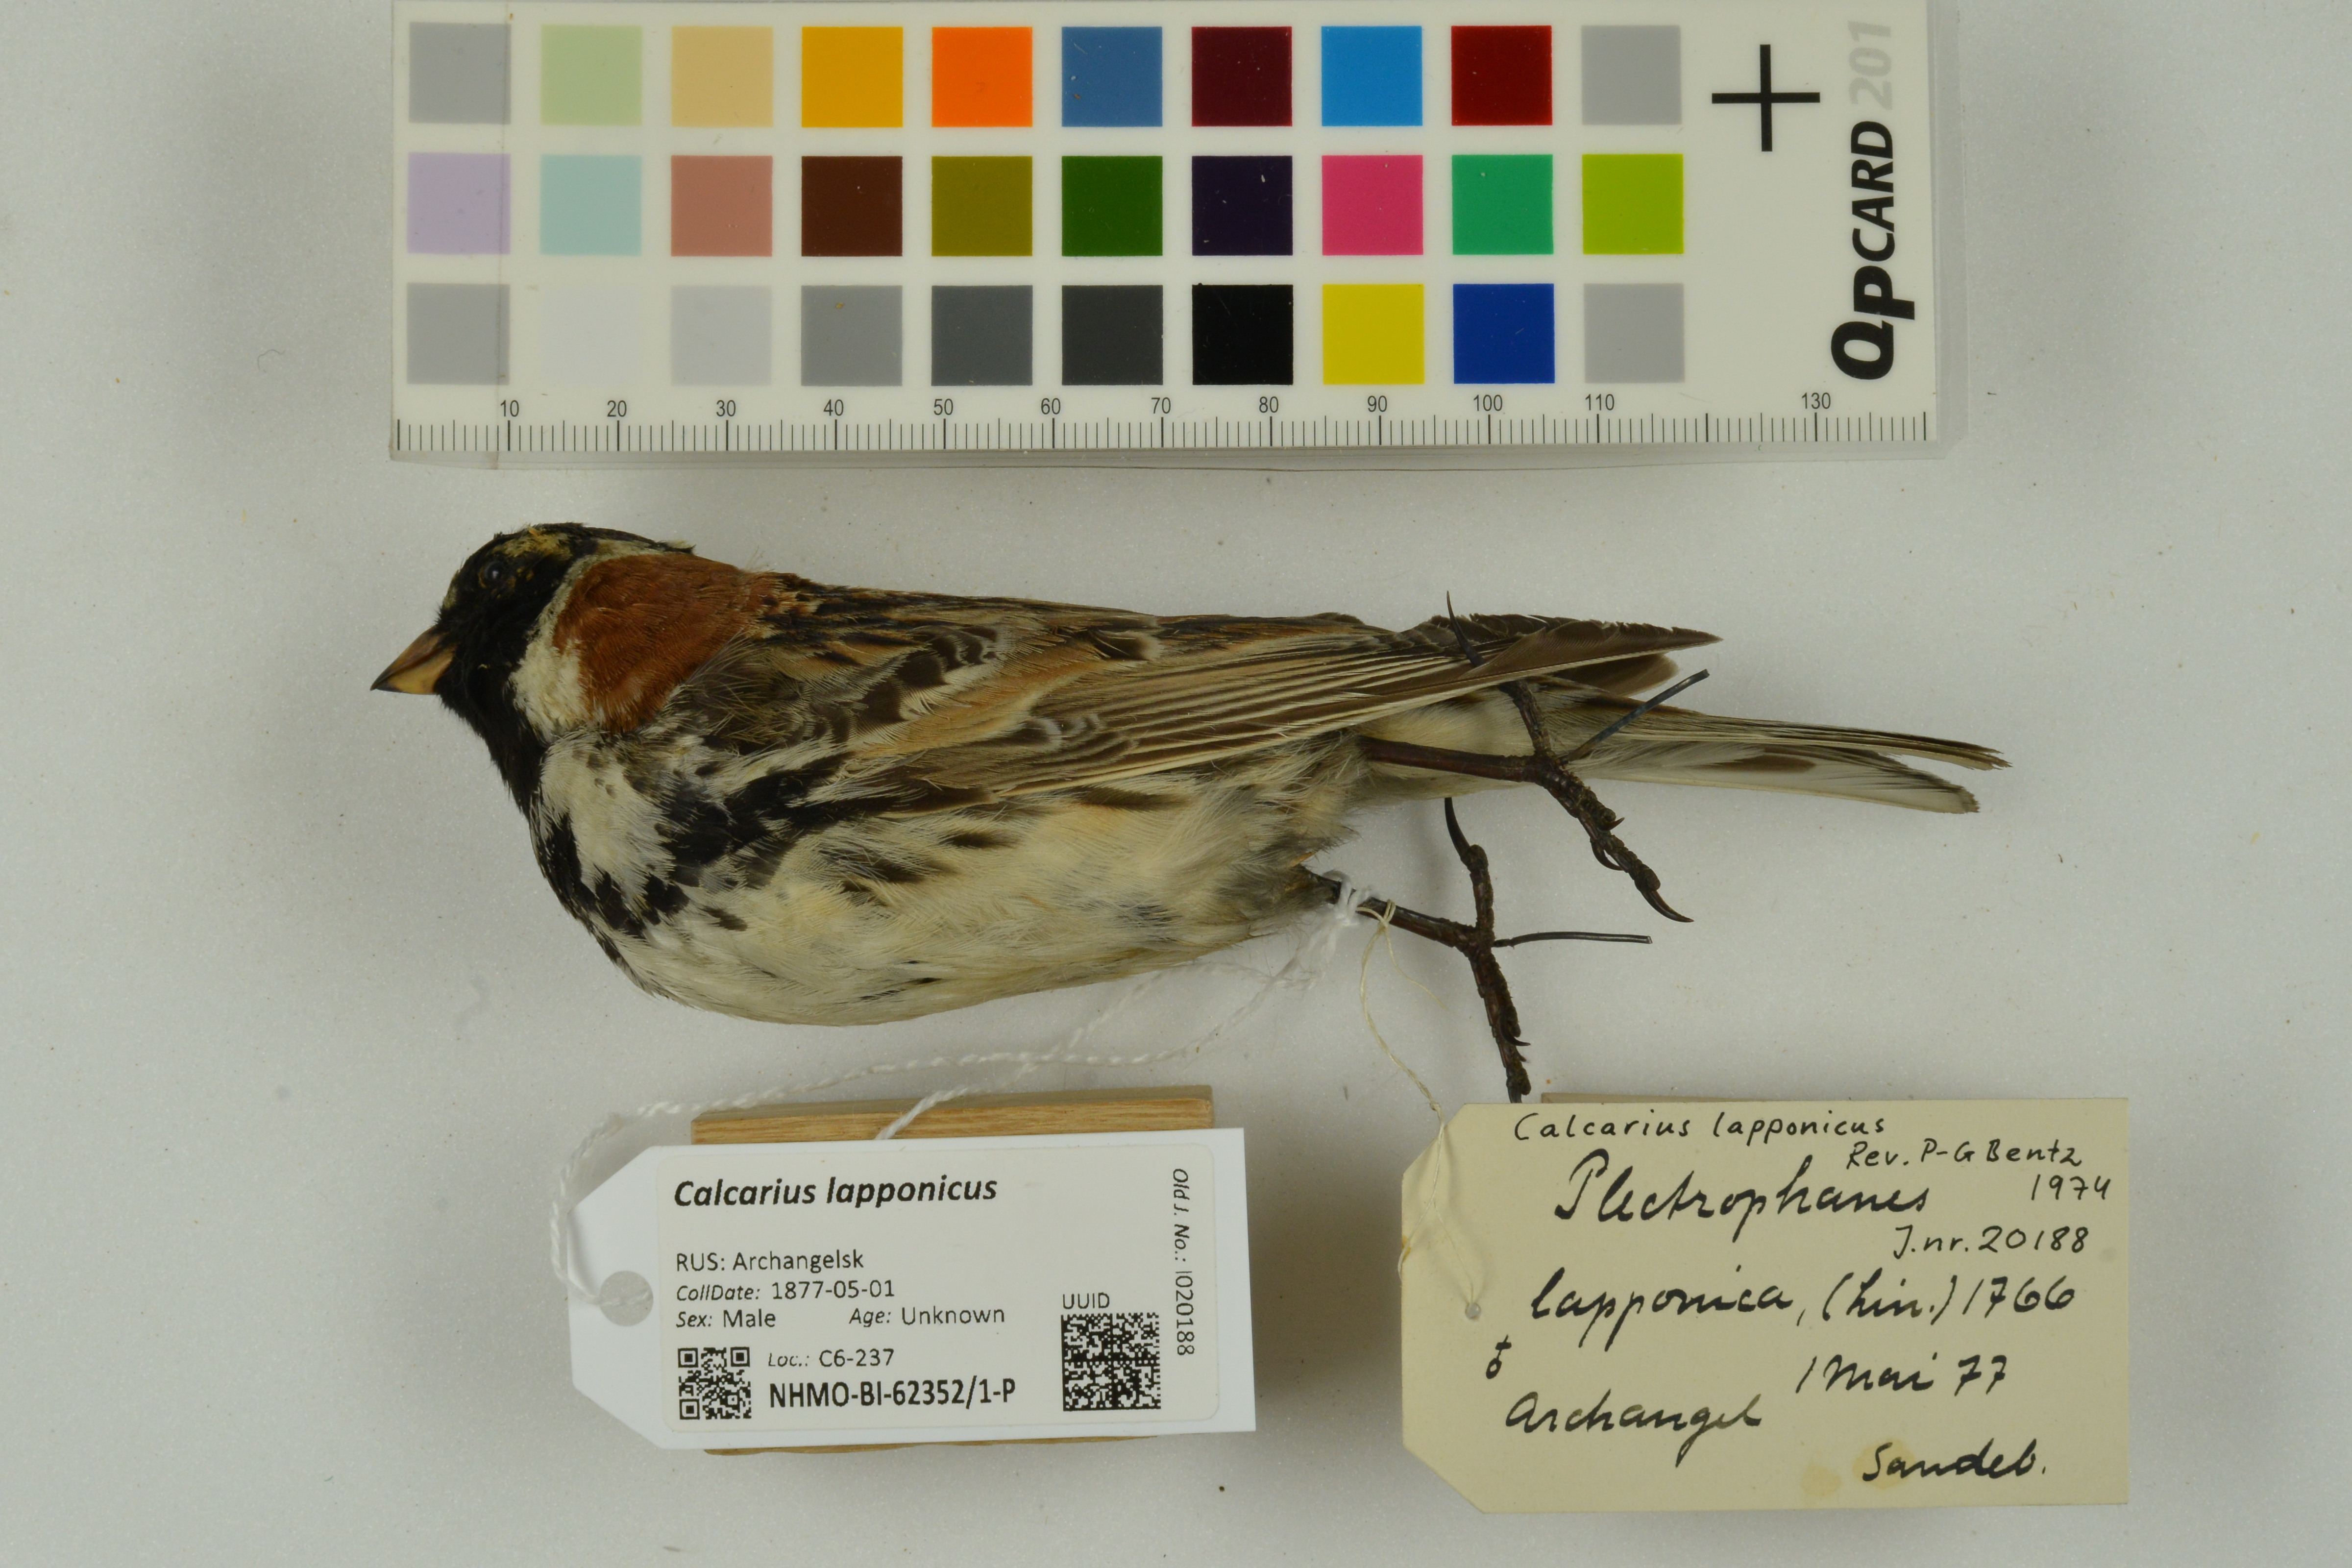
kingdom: Animalia
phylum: Chordata
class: Aves
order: Passeriformes
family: Calcariidae
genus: Calcarius
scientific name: Calcarius lapponicus
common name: Lapland longspur
